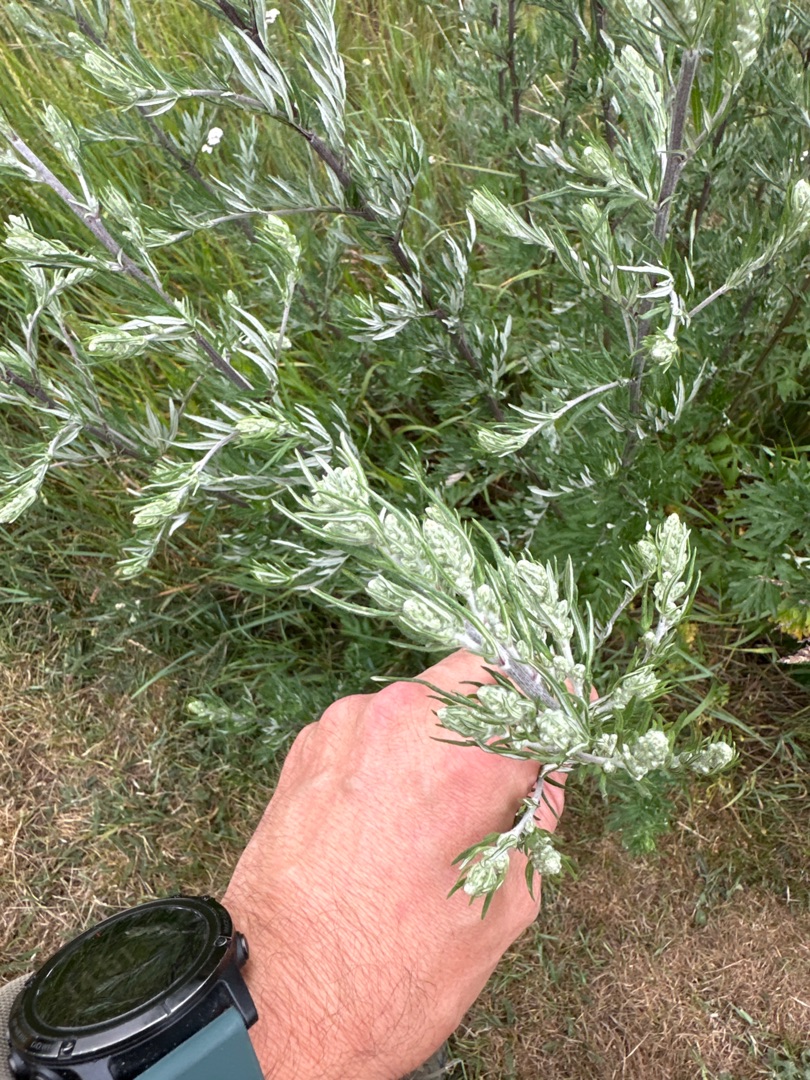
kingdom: Plantae
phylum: Tracheophyta
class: Magnoliopsida
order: Asterales
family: Asteraceae
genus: Artemisia
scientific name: Artemisia vulgaris
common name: Grå-bynke
